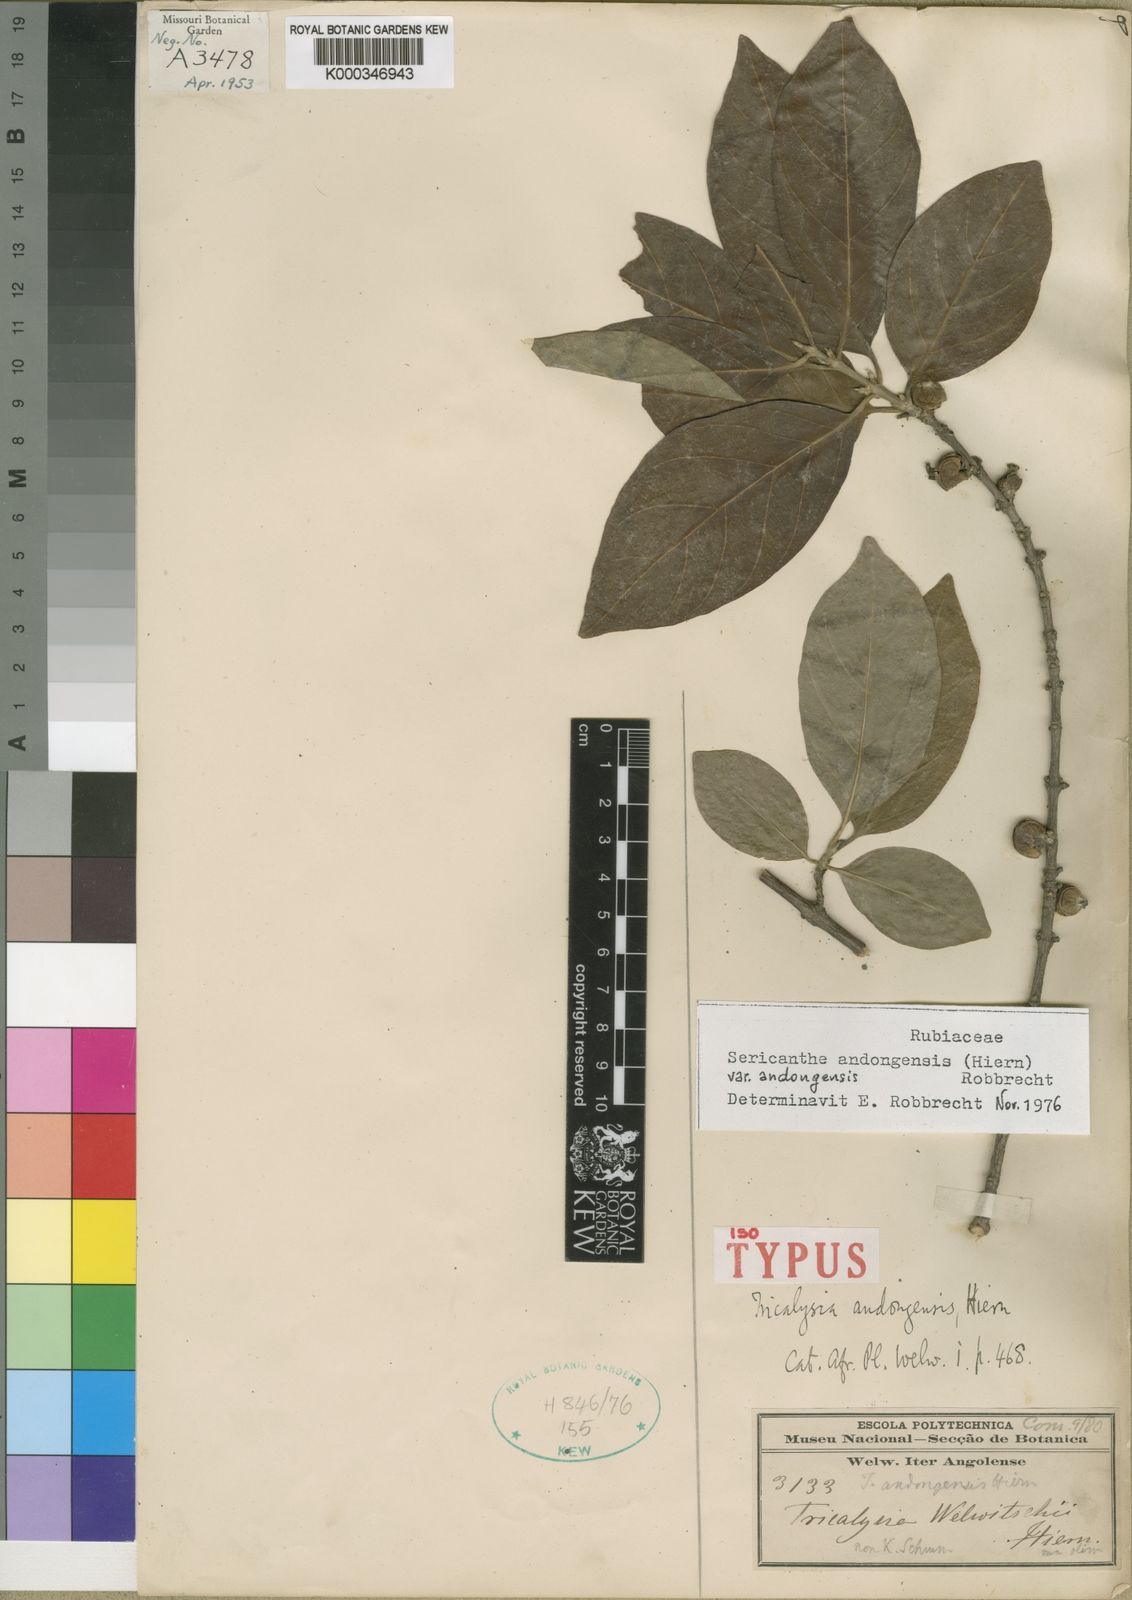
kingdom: Plantae
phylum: Tracheophyta
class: Magnoliopsida
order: Gentianales
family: Rubiaceae
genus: Sericanthe
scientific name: Sericanthe andongensis
